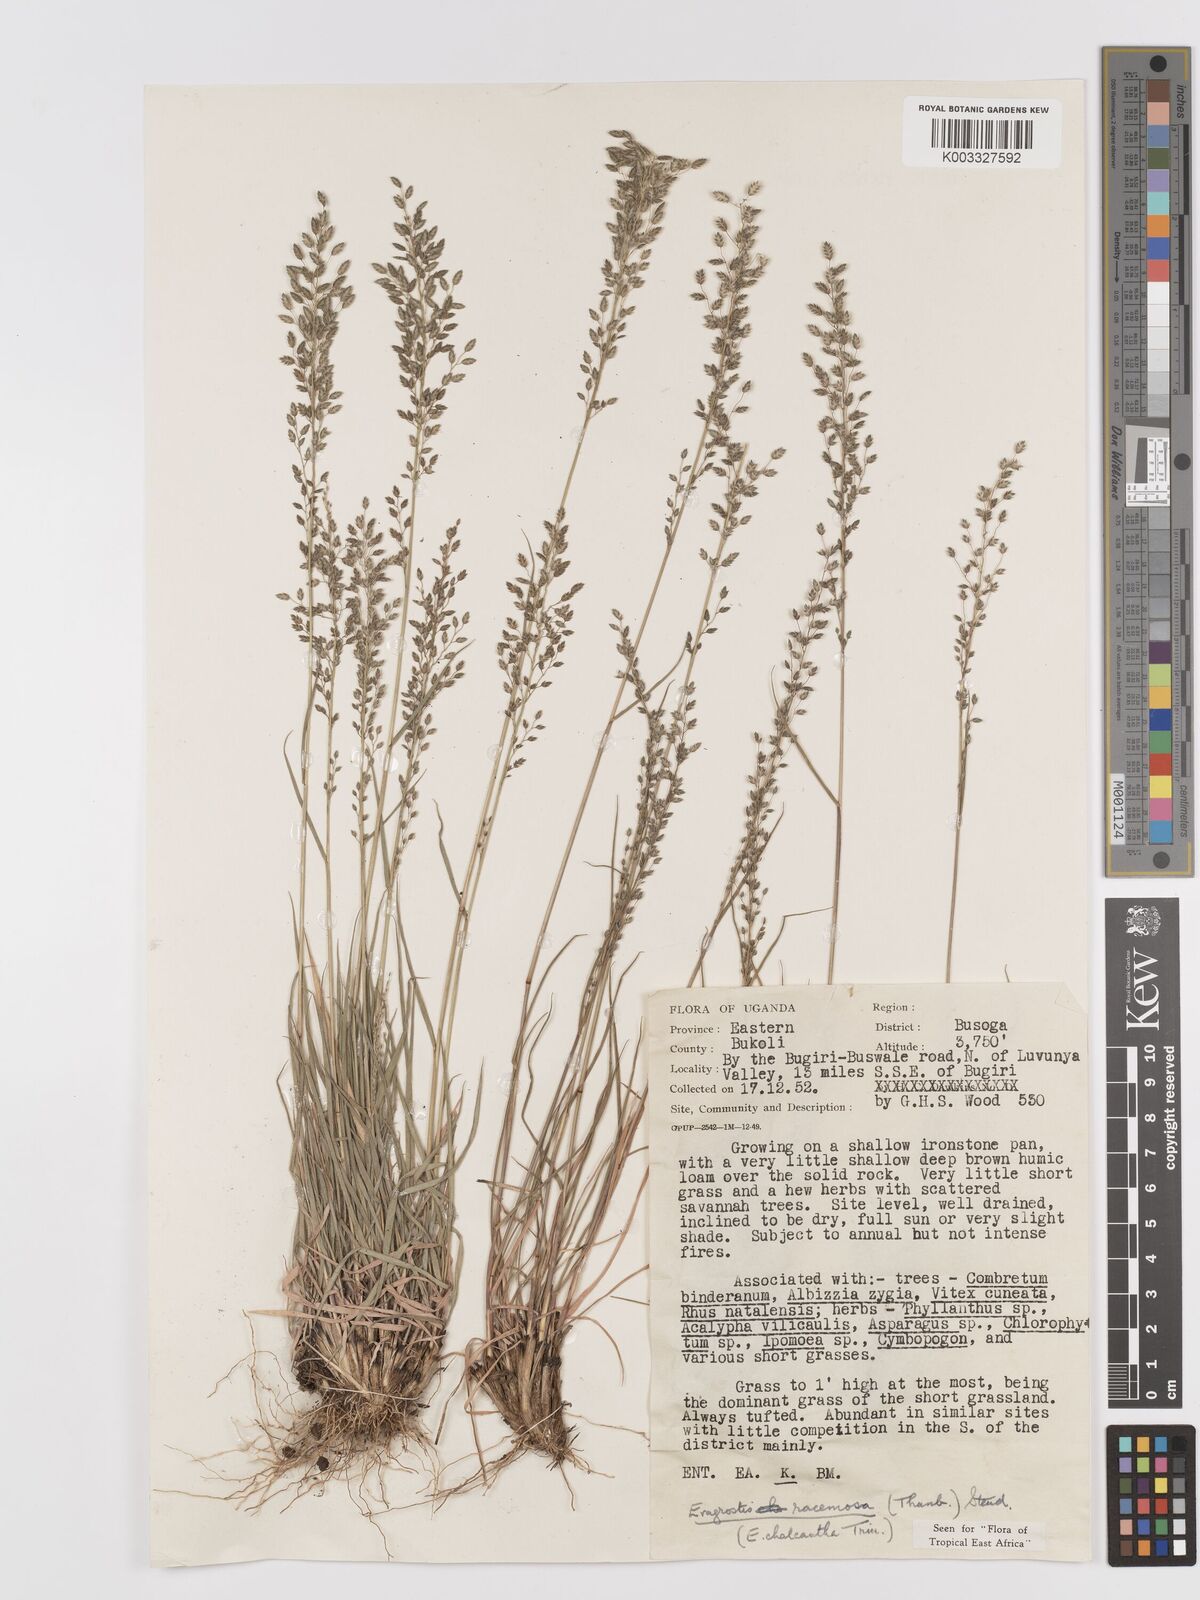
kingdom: Plantae
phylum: Tracheophyta
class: Liliopsida
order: Poales
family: Poaceae
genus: Eragrostis
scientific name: Eragrostis racemosa
